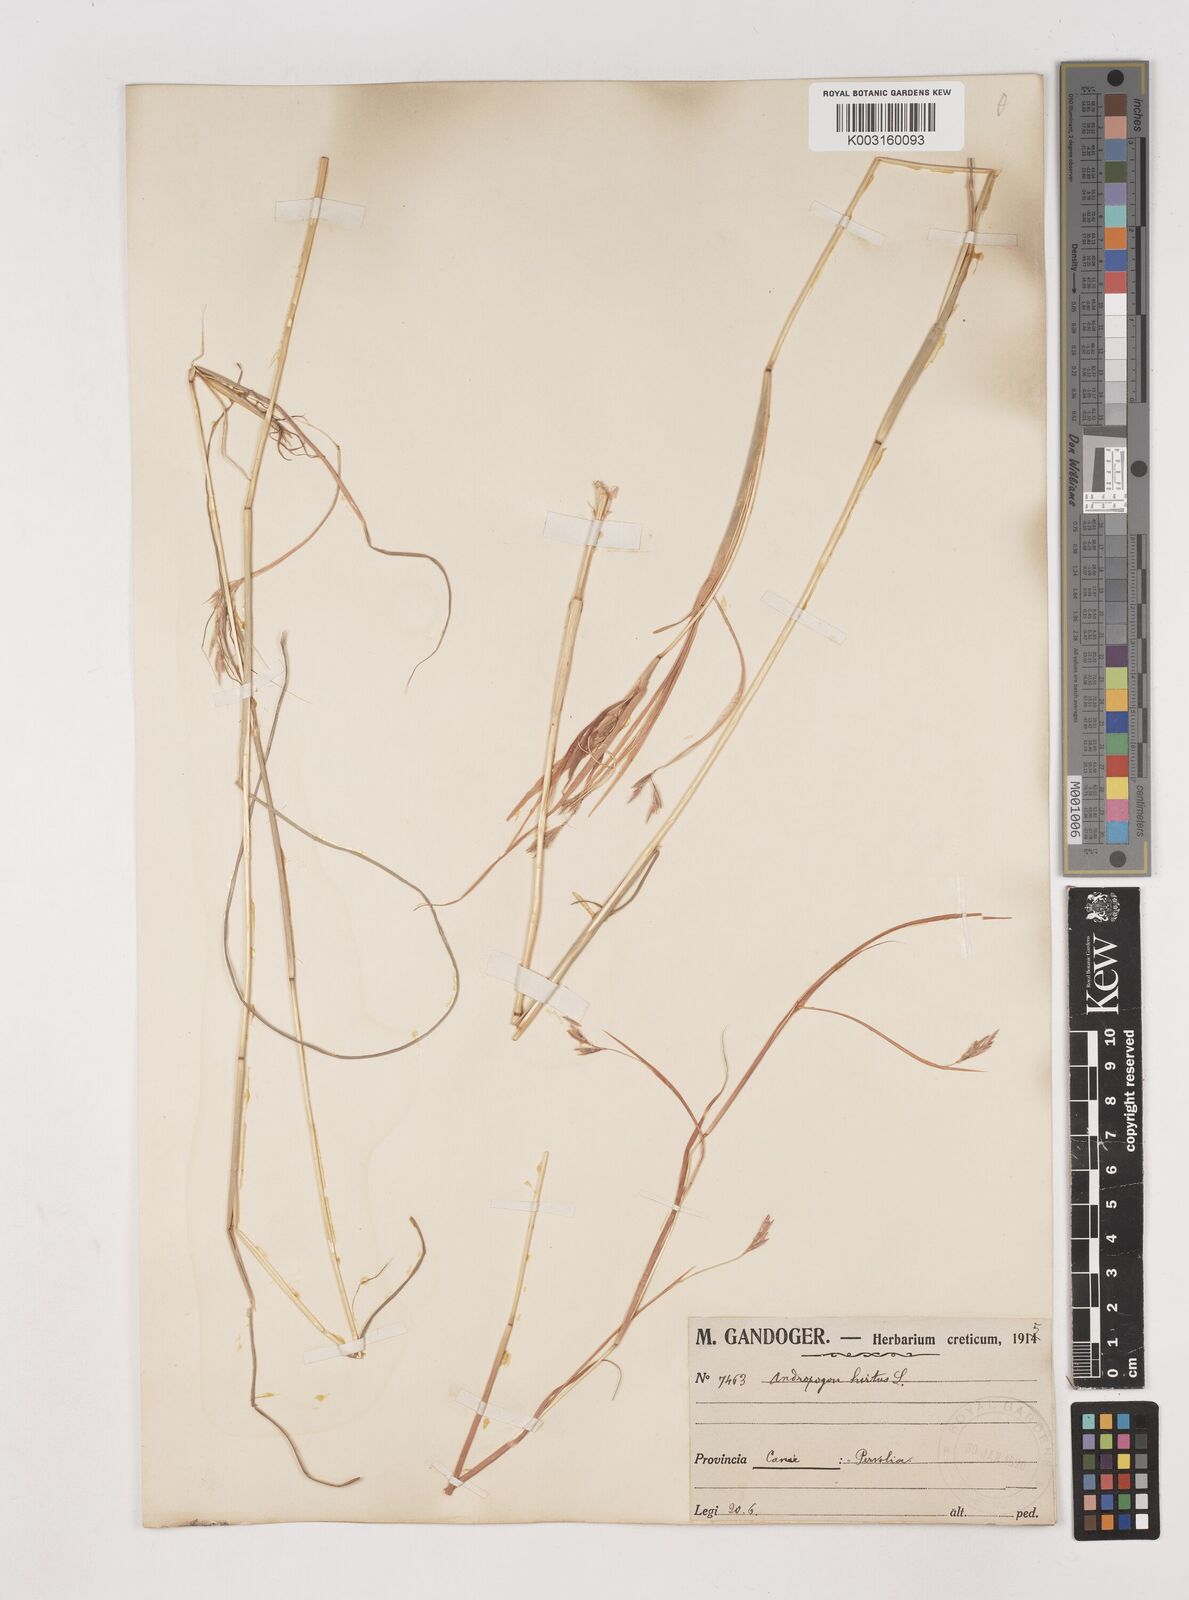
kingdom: Plantae
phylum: Tracheophyta
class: Liliopsida
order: Poales
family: Poaceae
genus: Hyparrhenia
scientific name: Hyparrhenia hirta
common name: Thatching grass
